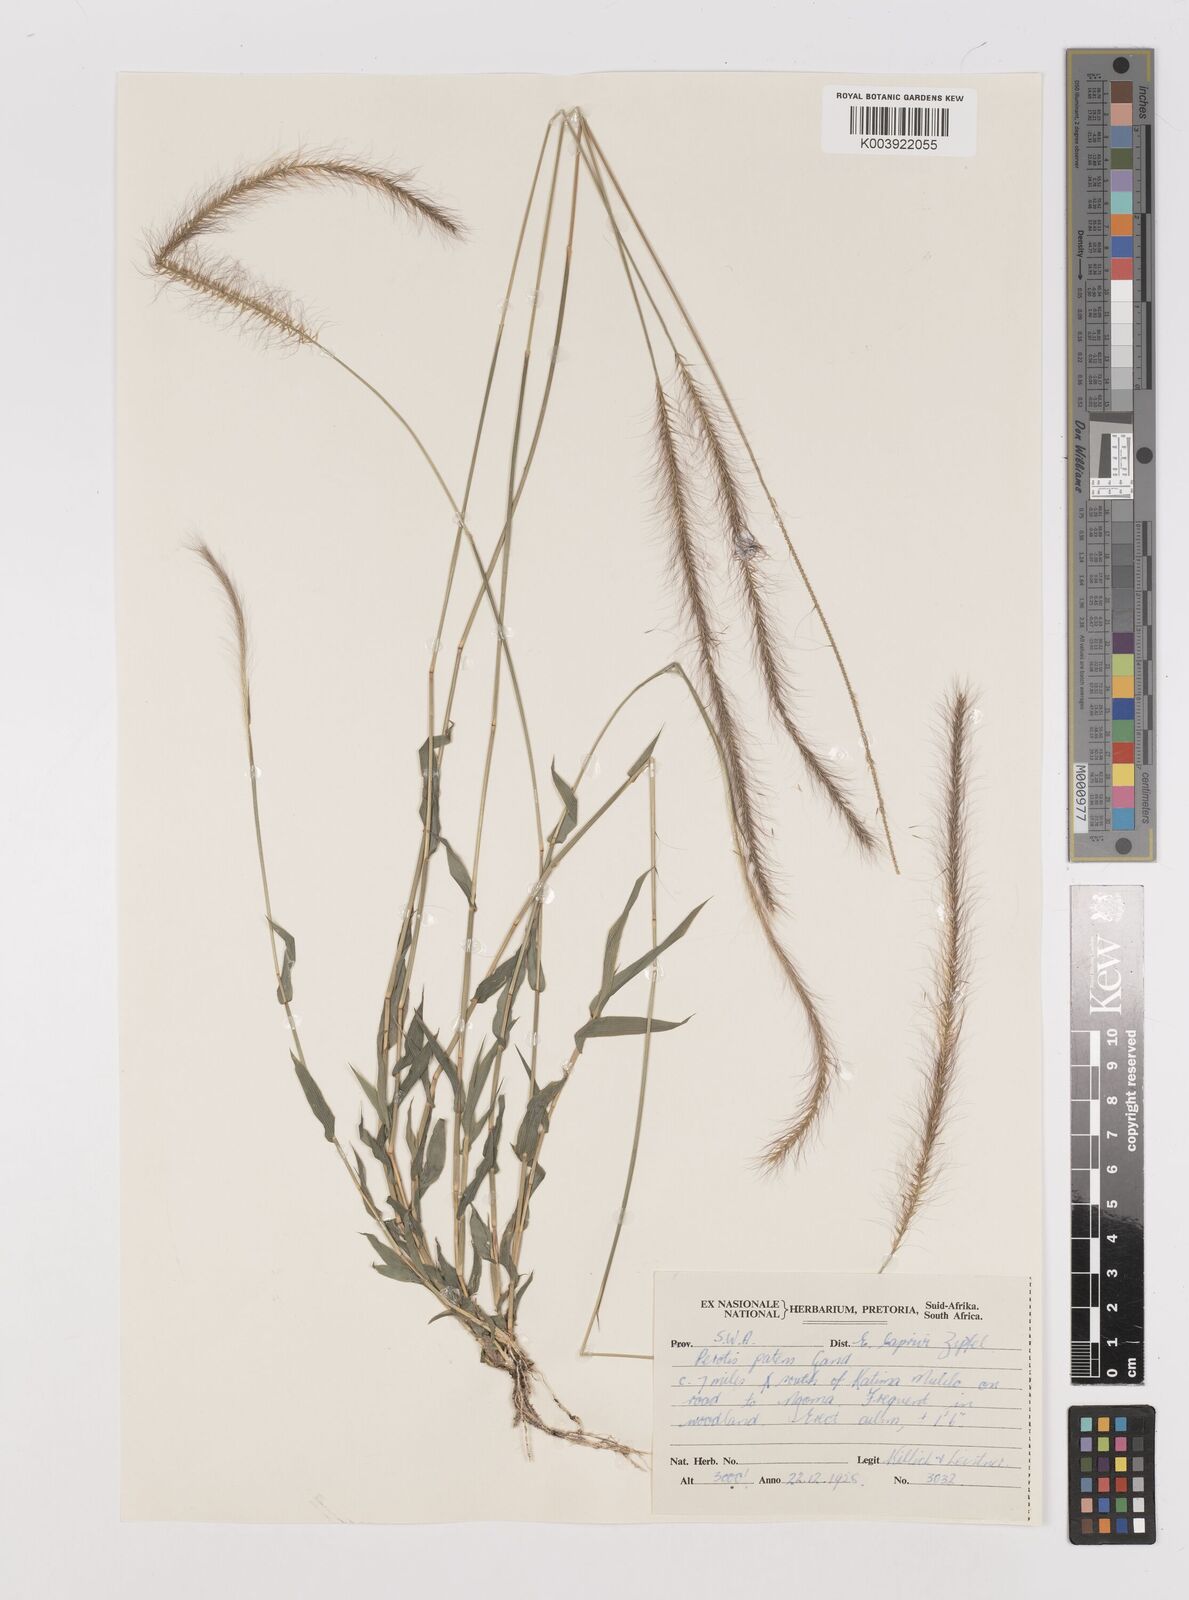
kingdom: Plantae
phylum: Tracheophyta
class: Liliopsida
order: Poales
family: Poaceae
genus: Perotis
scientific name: Perotis patens
